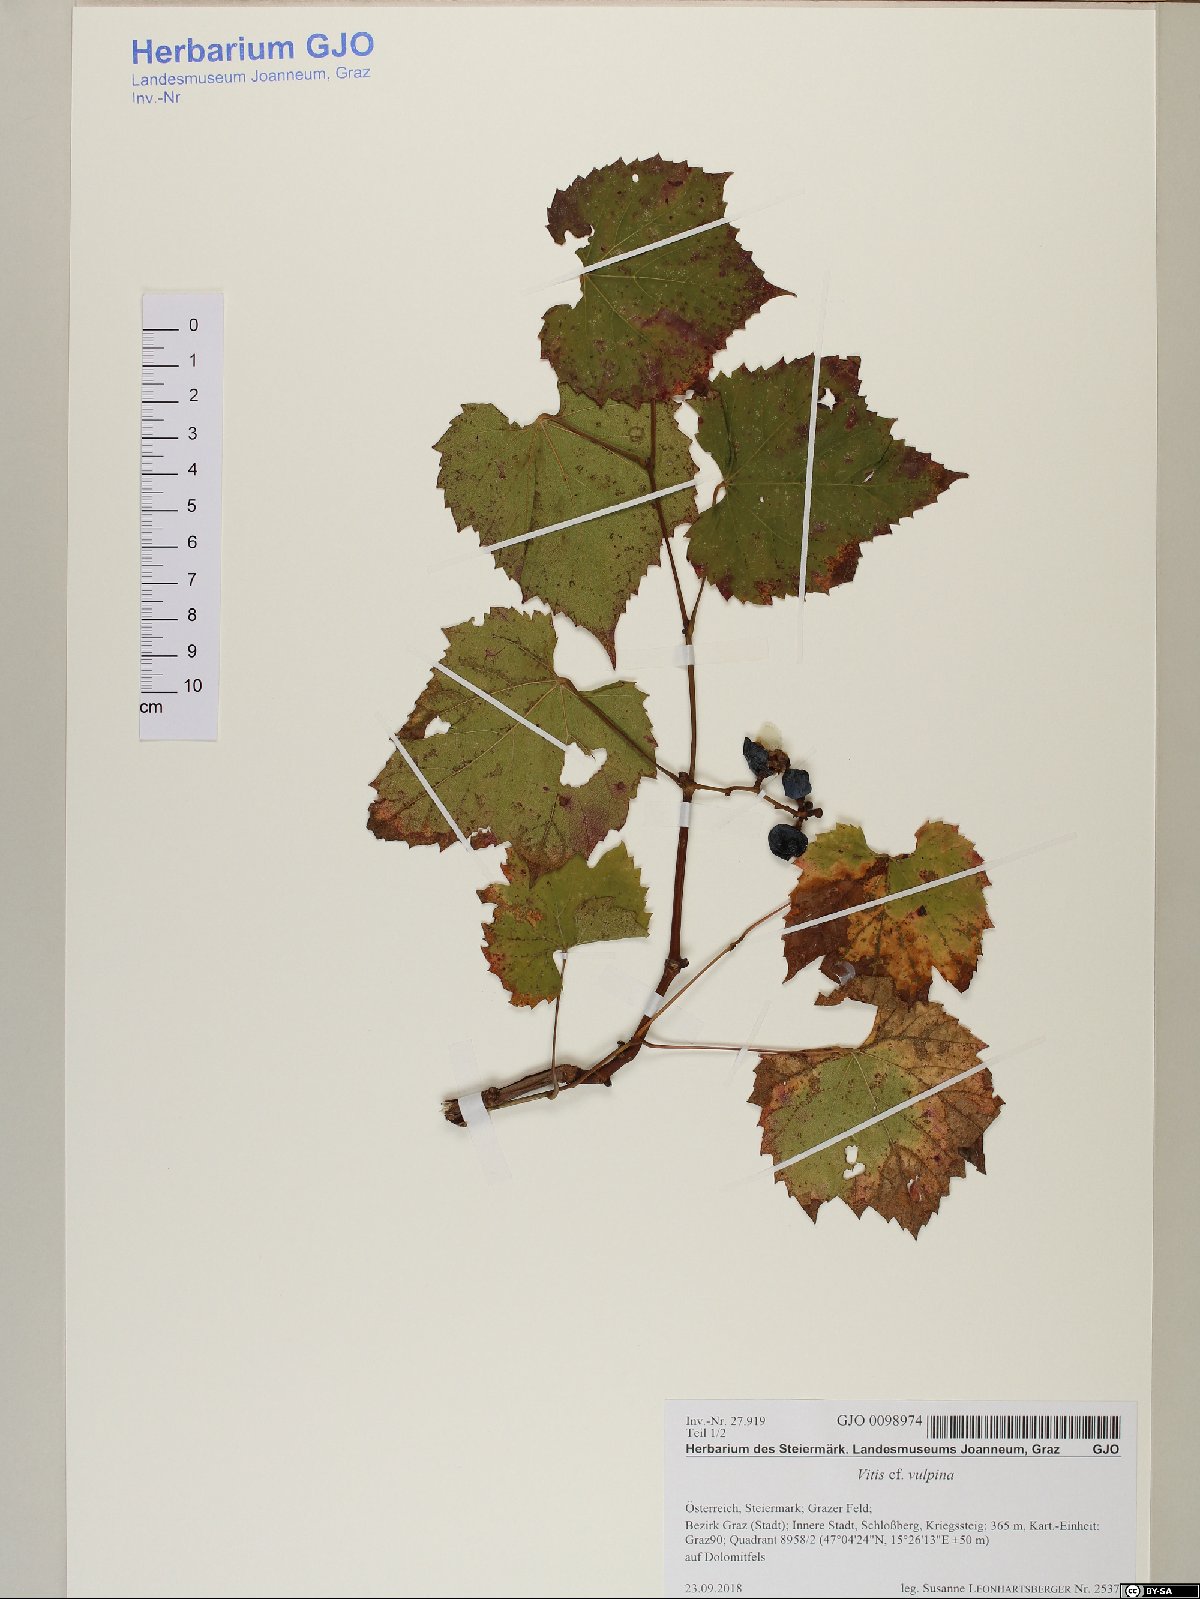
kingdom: Plantae
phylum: Tracheophyta
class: Magnoliopsida
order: Vitales
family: Vitaceae
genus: Vitis
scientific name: Vitis vulpina
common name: Frost grape
